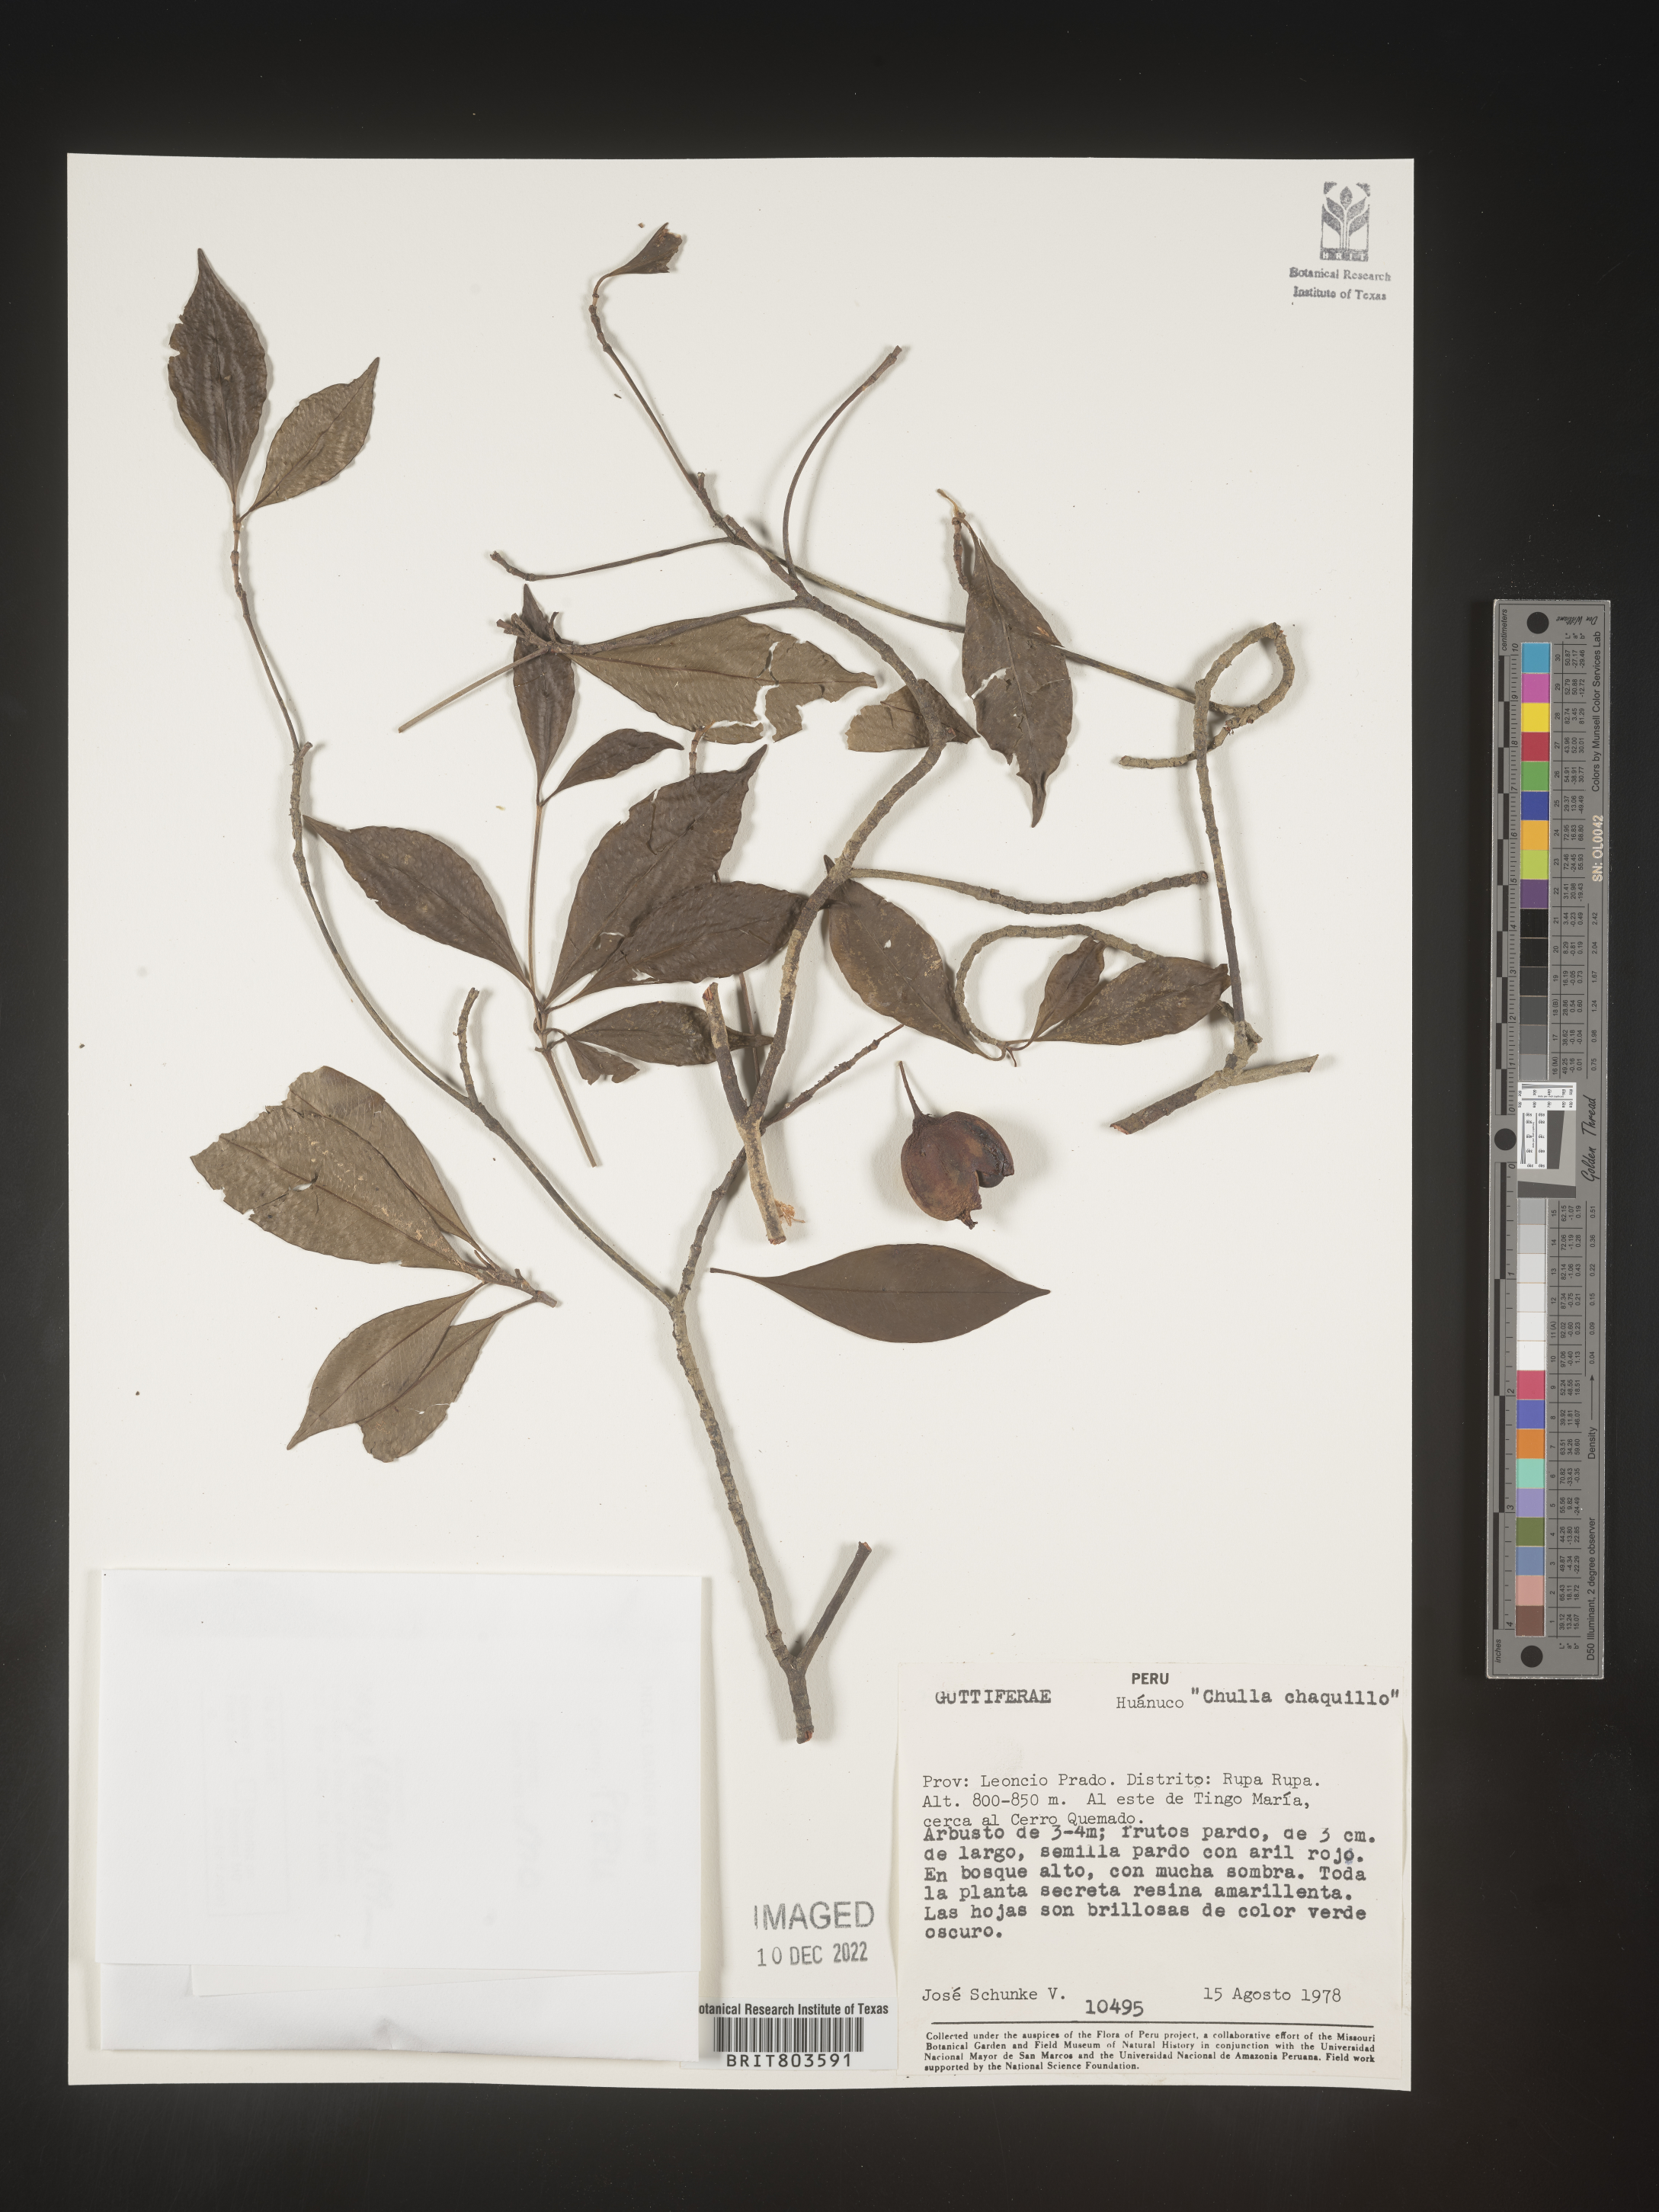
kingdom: Plantae
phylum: Tracheophyta
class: Magnoliopsida
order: Malpighiales
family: Clusiaceae
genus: Tovomita
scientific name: Tovomita
